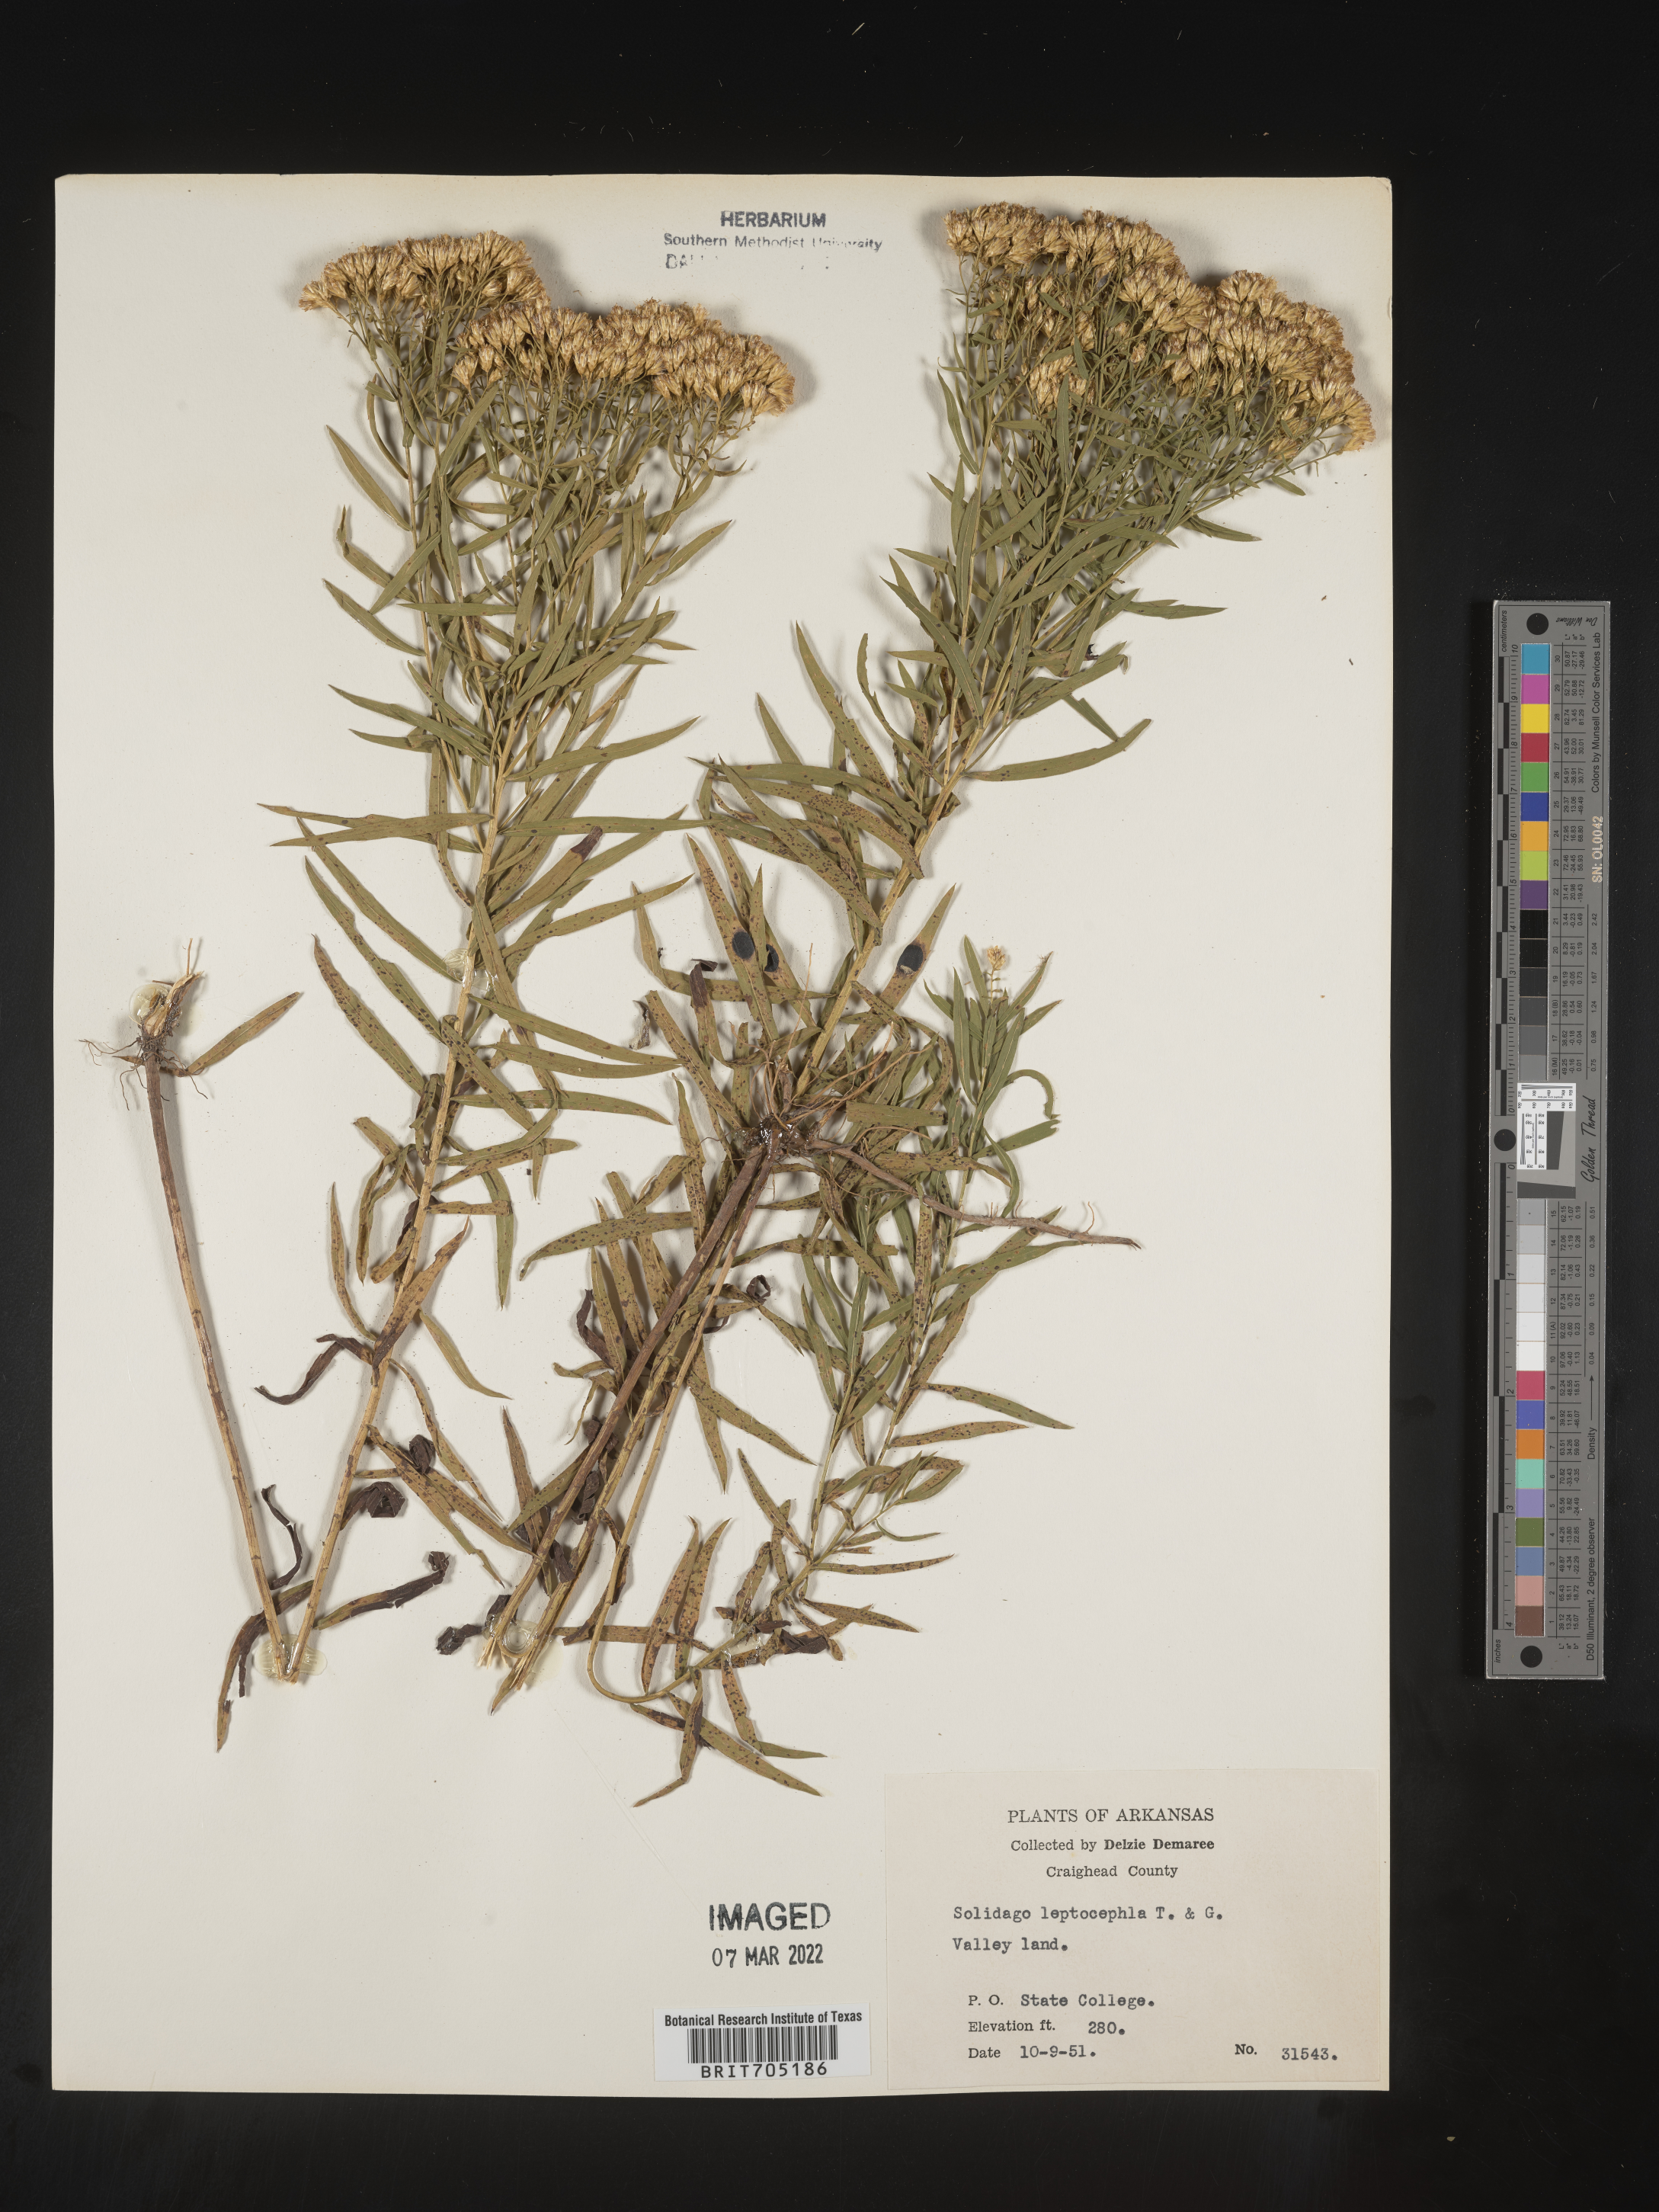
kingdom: Plantae
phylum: Tracheophyta
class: Magnoliopsida
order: Asterales
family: Asteraceae
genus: Euthamia
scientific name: Euthamia leptocephala
